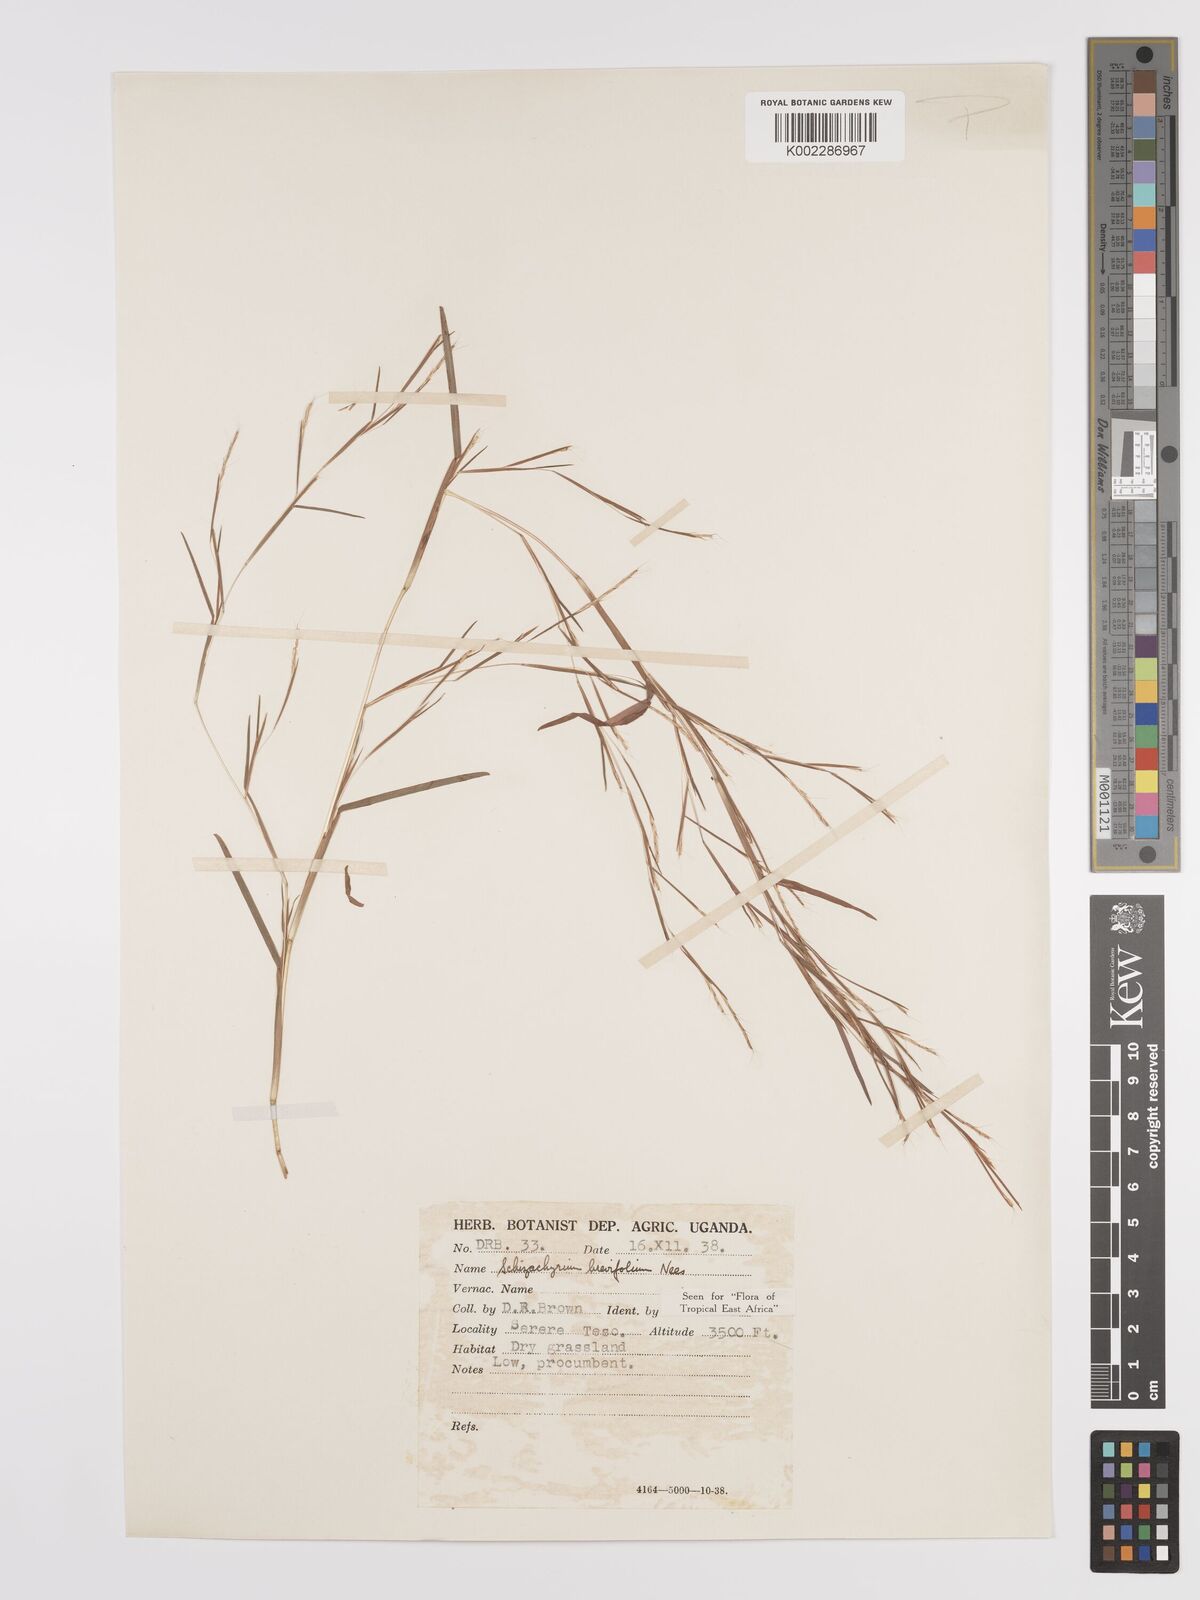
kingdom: Plantae
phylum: Tracheophyta
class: Liliopsida
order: Poales
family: Poaceae
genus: Schizachyrium
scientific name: Schizachyrium brevifolium
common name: Serillo dulce
